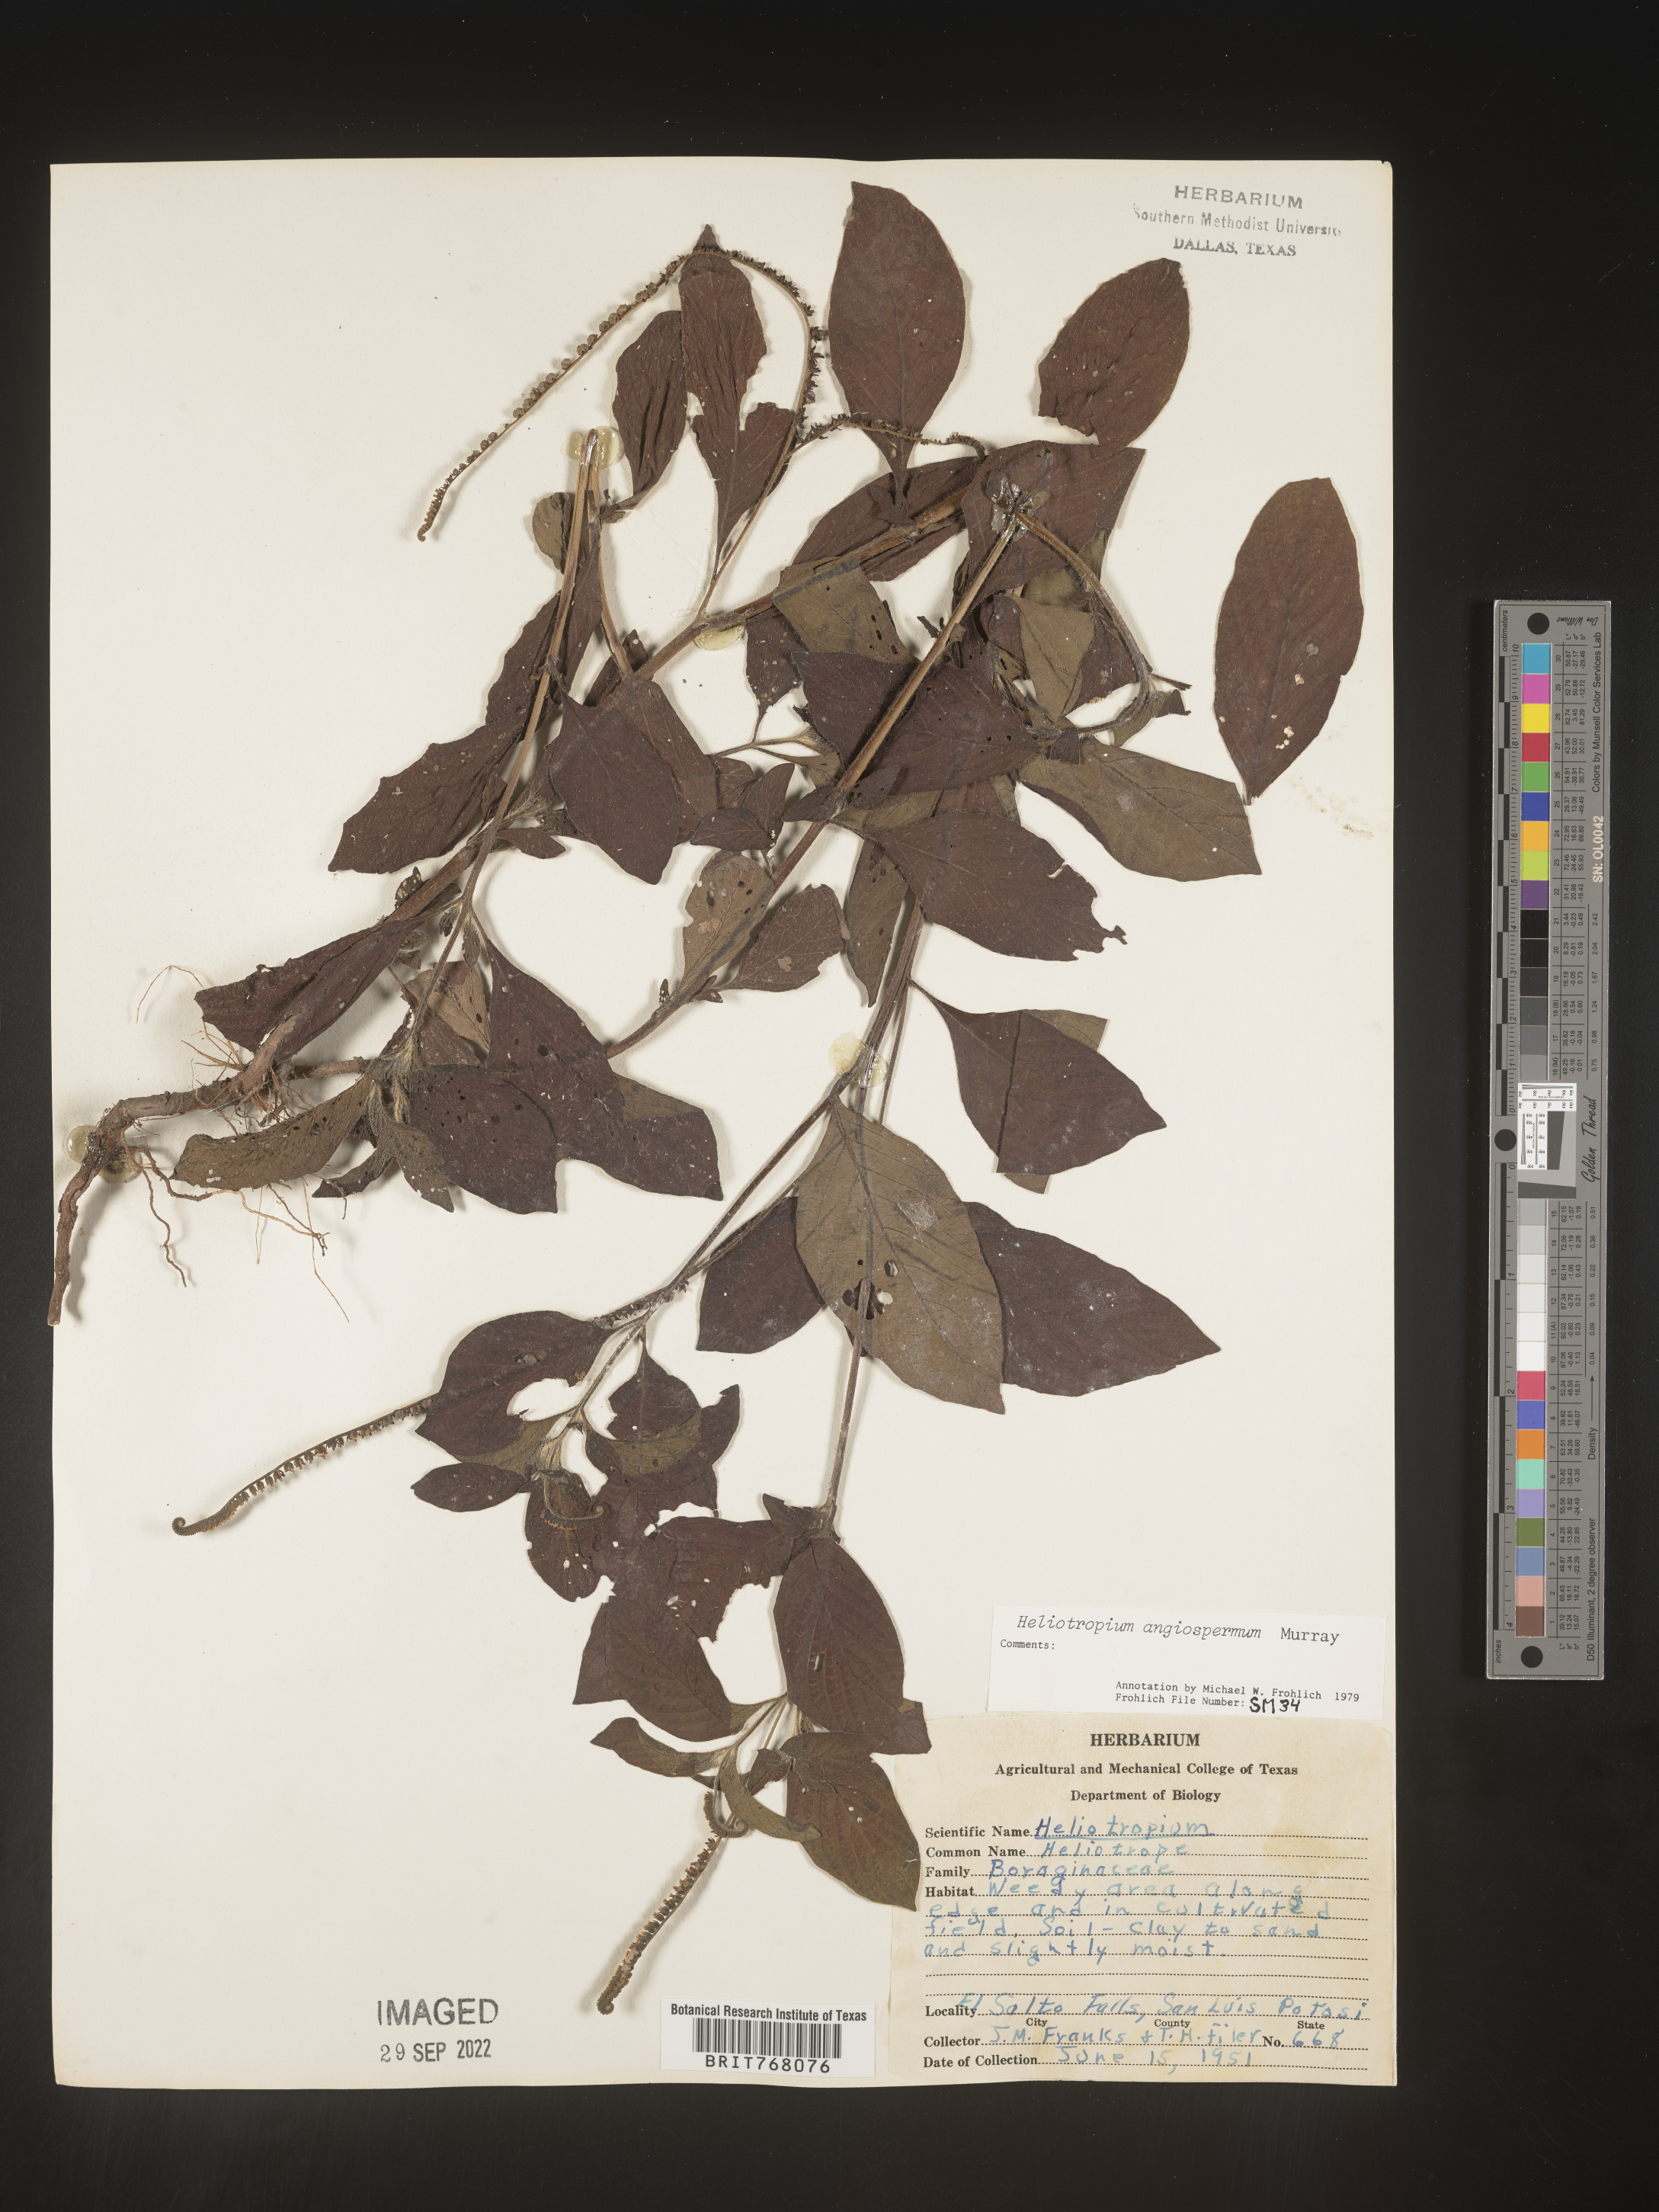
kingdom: Plantae
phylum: Tracheophyta
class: Magnoliopsida
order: Boraginales
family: Heliotropiaceae
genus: Heliotropium
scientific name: Heliotropium
